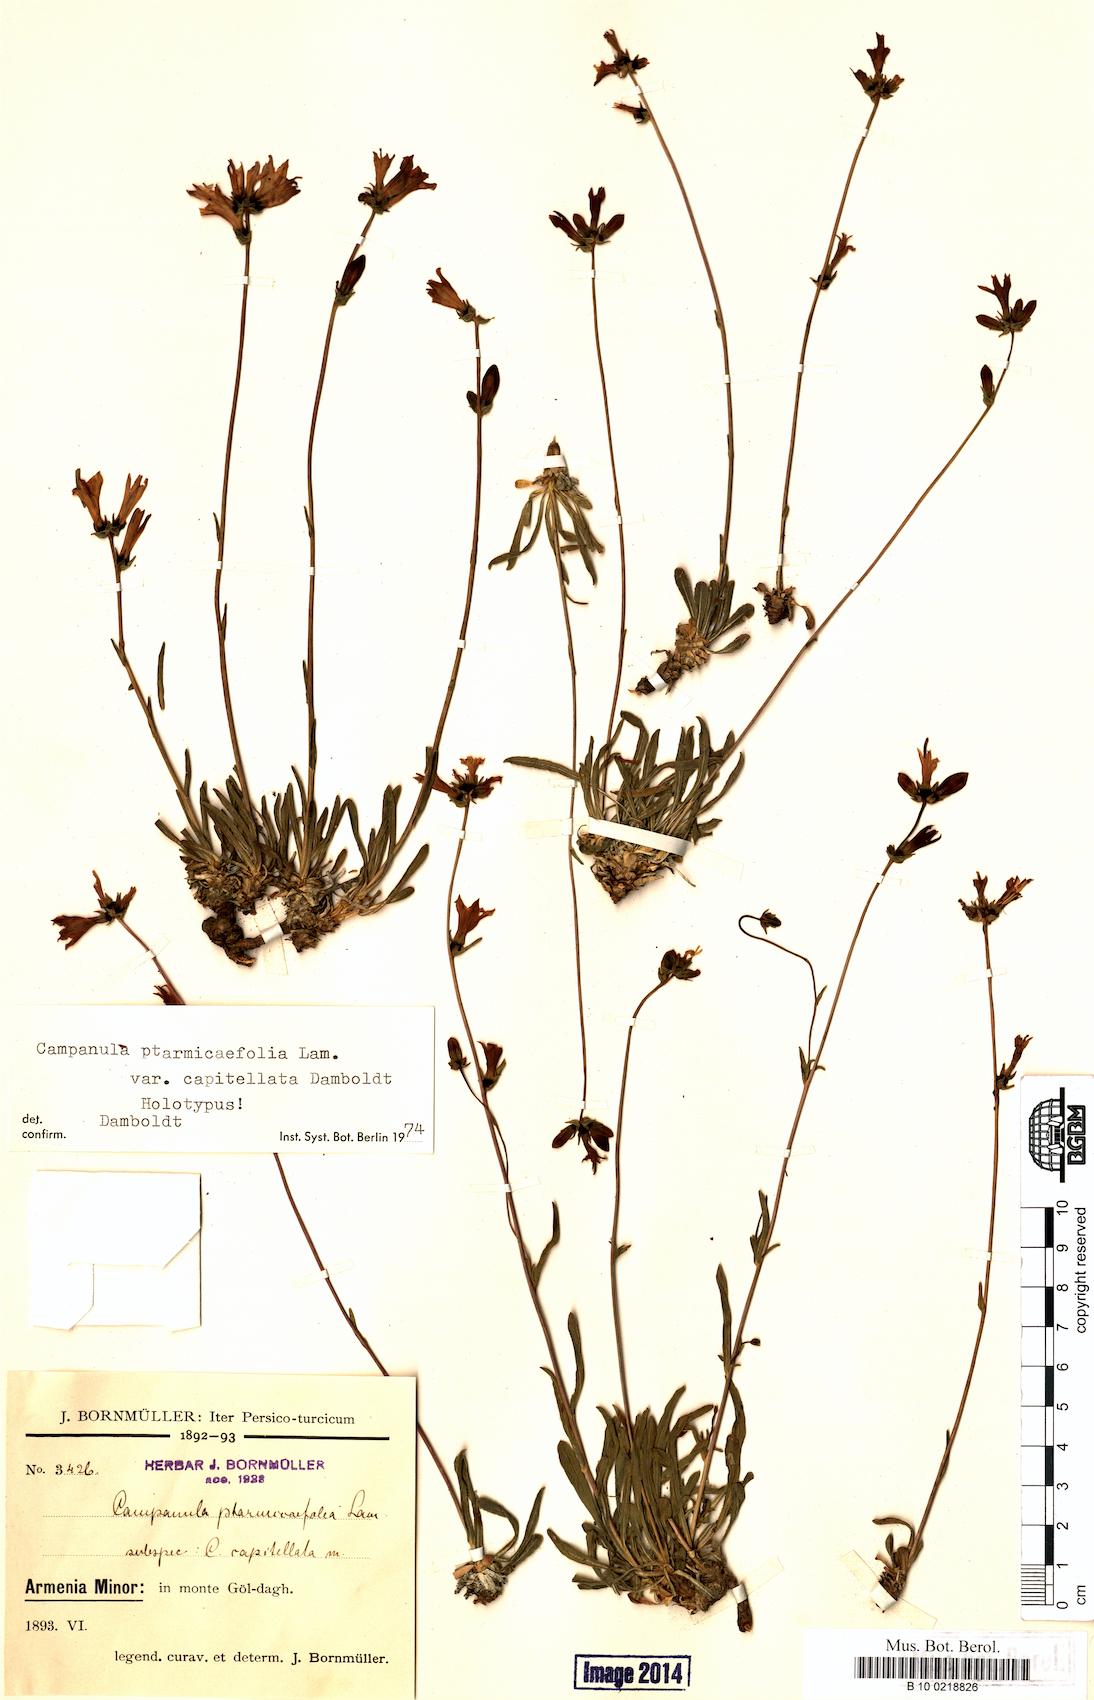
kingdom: Plantae
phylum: Tracheophyta
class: Magnoliopsida
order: Asterales
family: Campanulaceae
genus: Campanula
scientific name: Campanula ovacikensis
